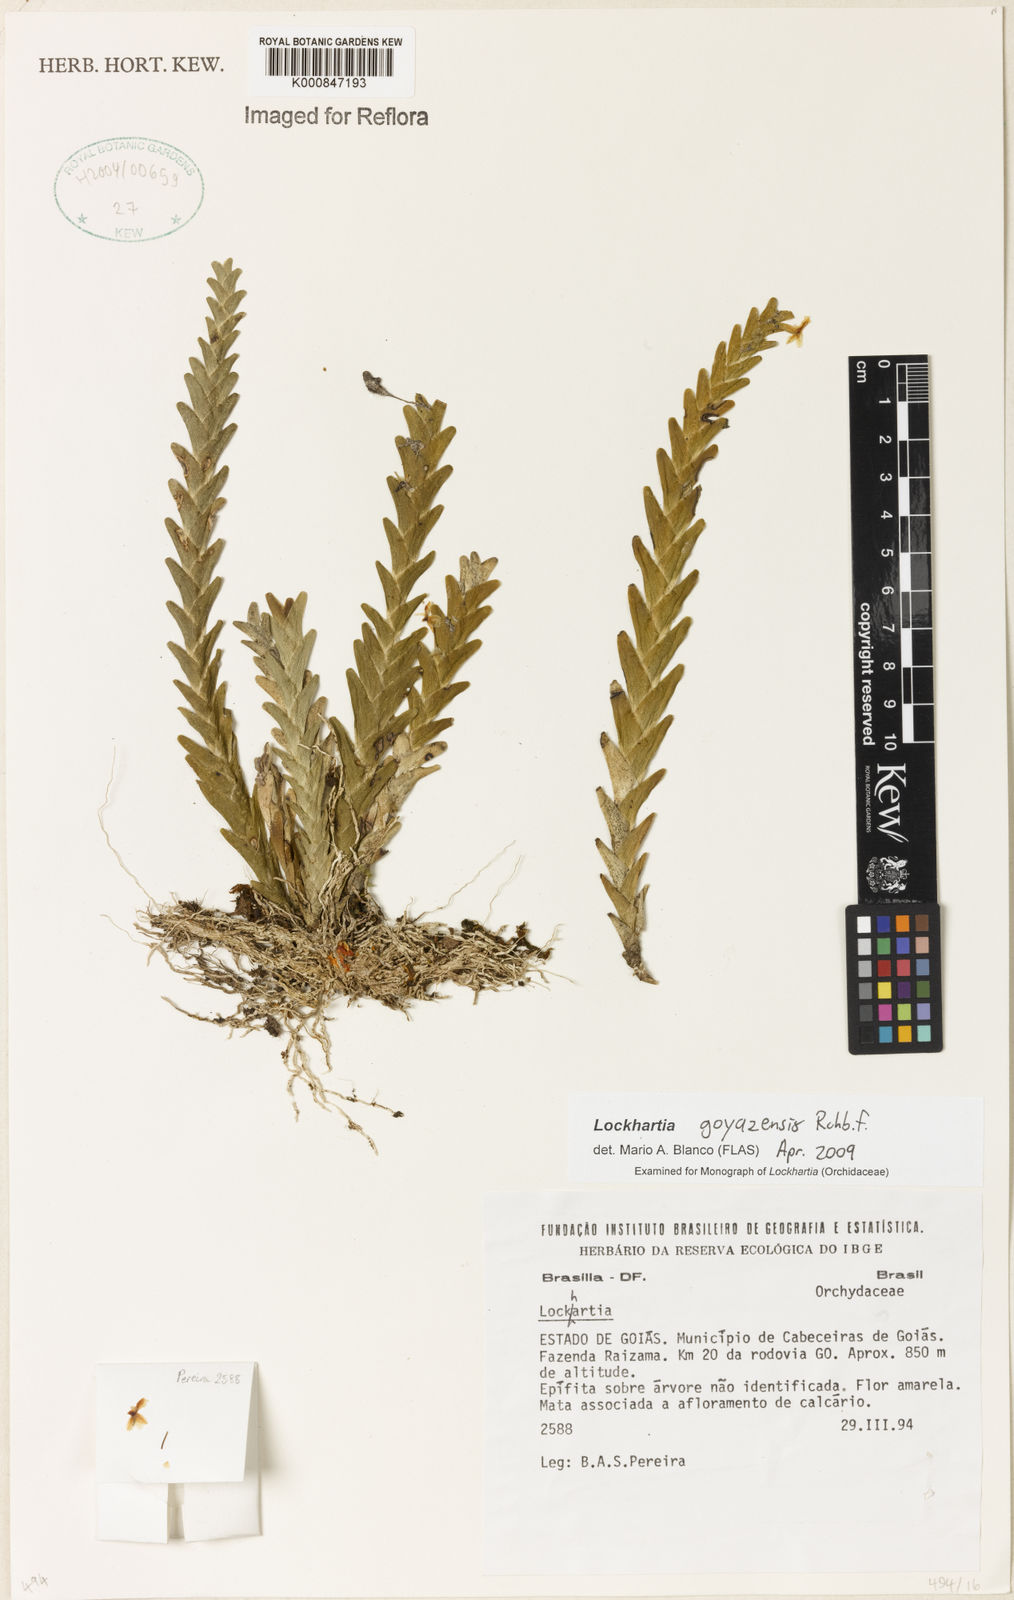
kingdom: Plantae
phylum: Tracheophyta
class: Liliopsida
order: Asparagales
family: Orchidaceae
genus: Lockhartia
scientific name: Lockhartia goyazensis
